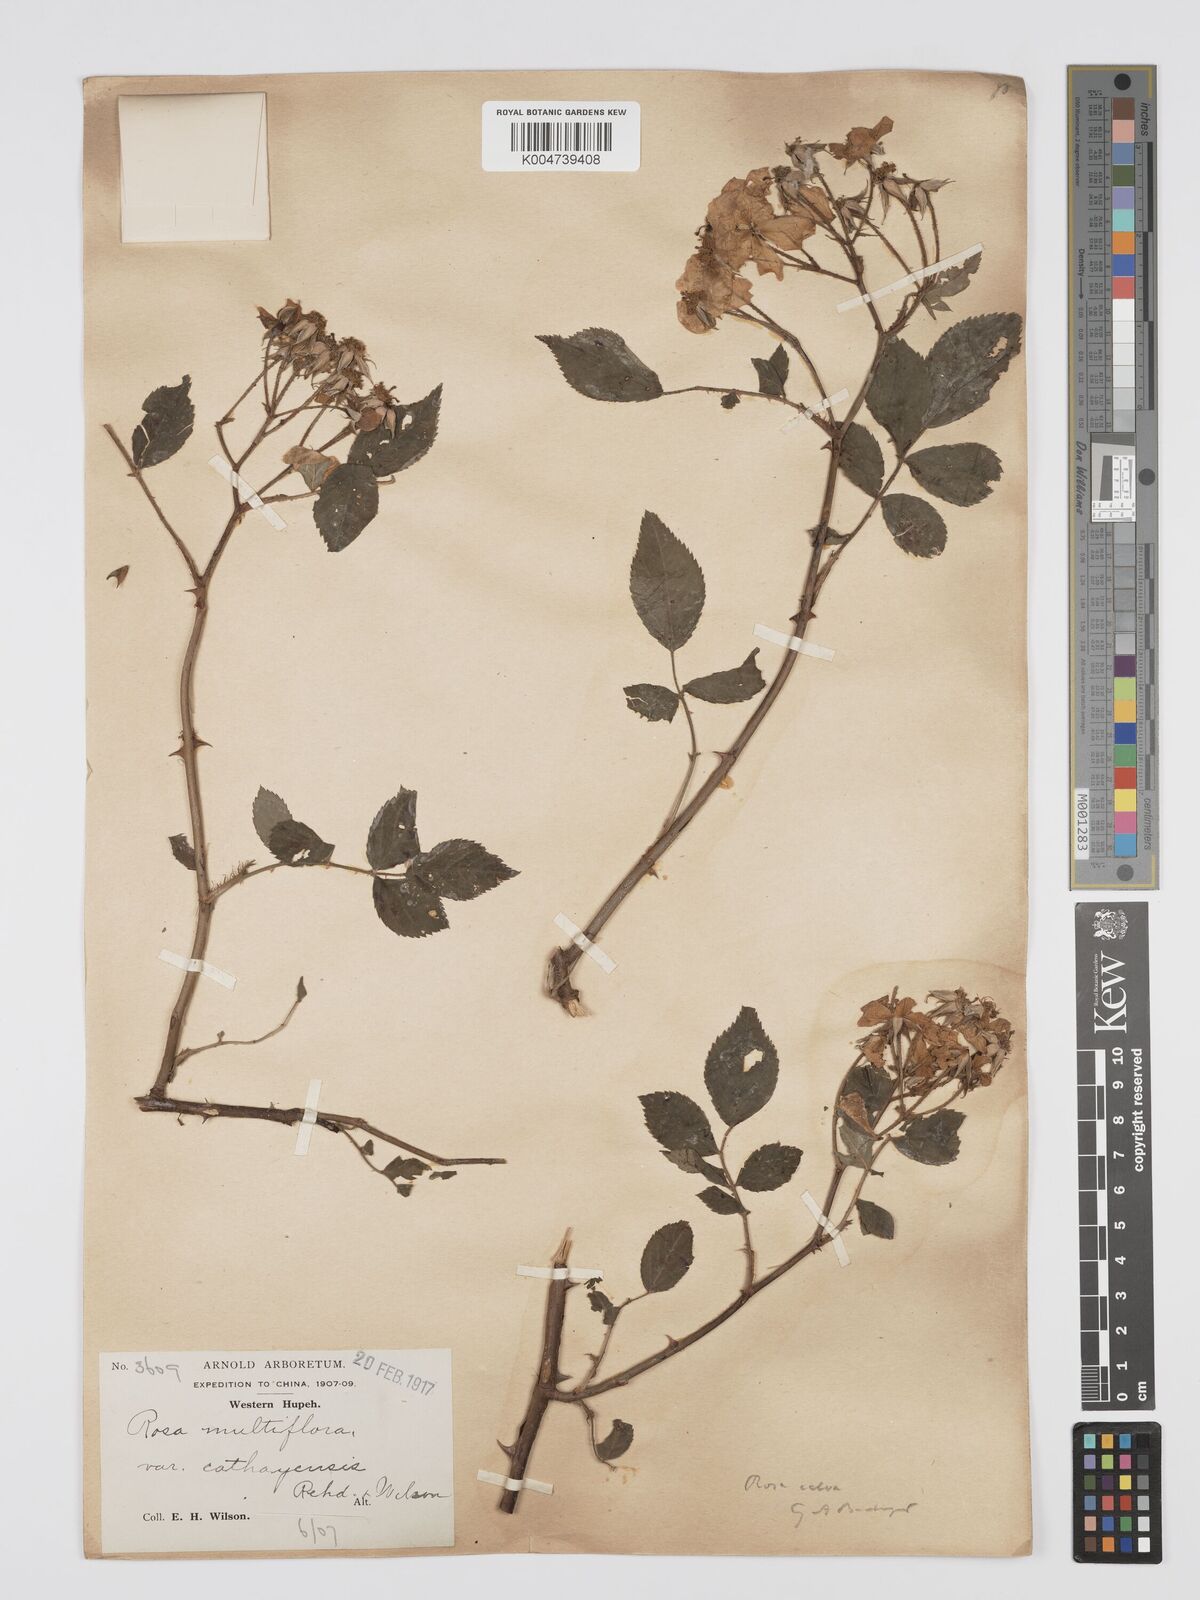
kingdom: Plantae
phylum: Tracheophyta
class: Magnoliopsida
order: Rosales
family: Rosaceae
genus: Rosa
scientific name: Rosa
